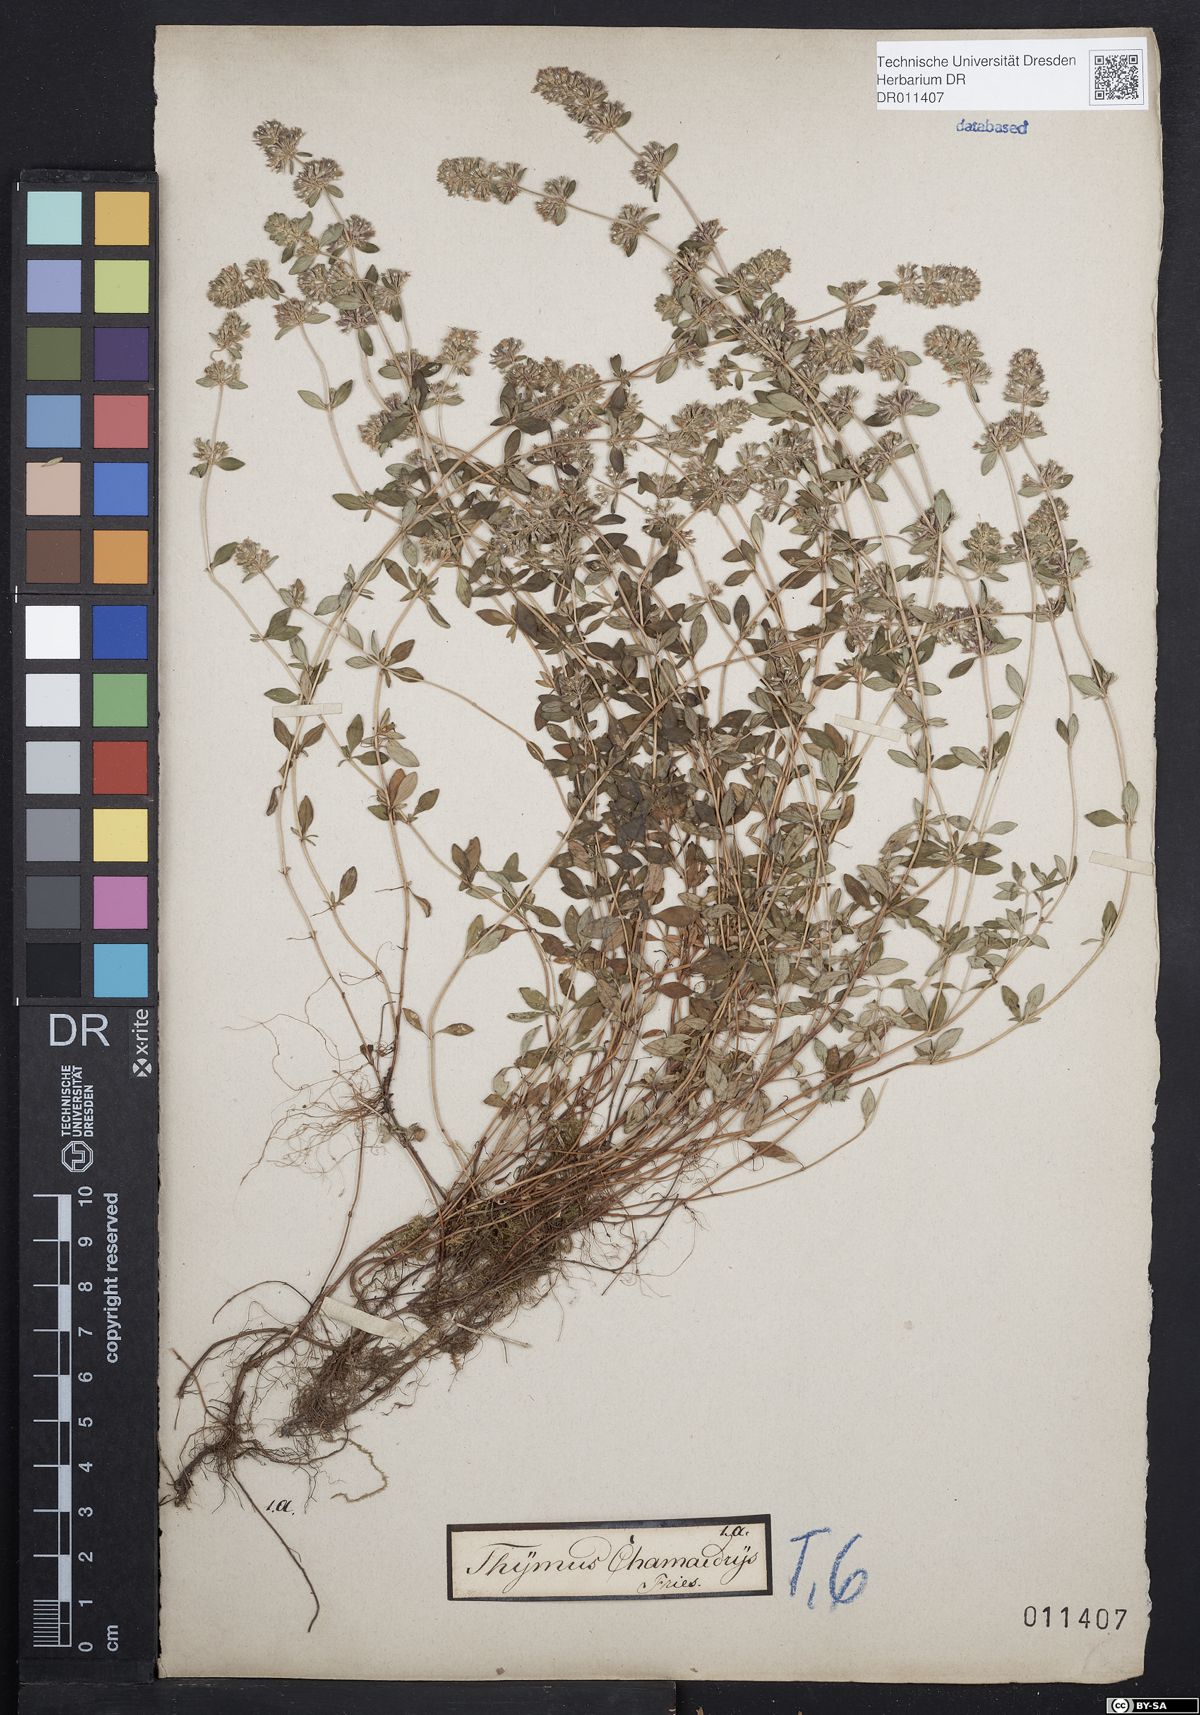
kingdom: Plantae
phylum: Tracheophyta
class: Magnoliopsida
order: Lamiales
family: Lamiaceae
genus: Thymus
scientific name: Thymus pulegioides
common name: Large thyme
